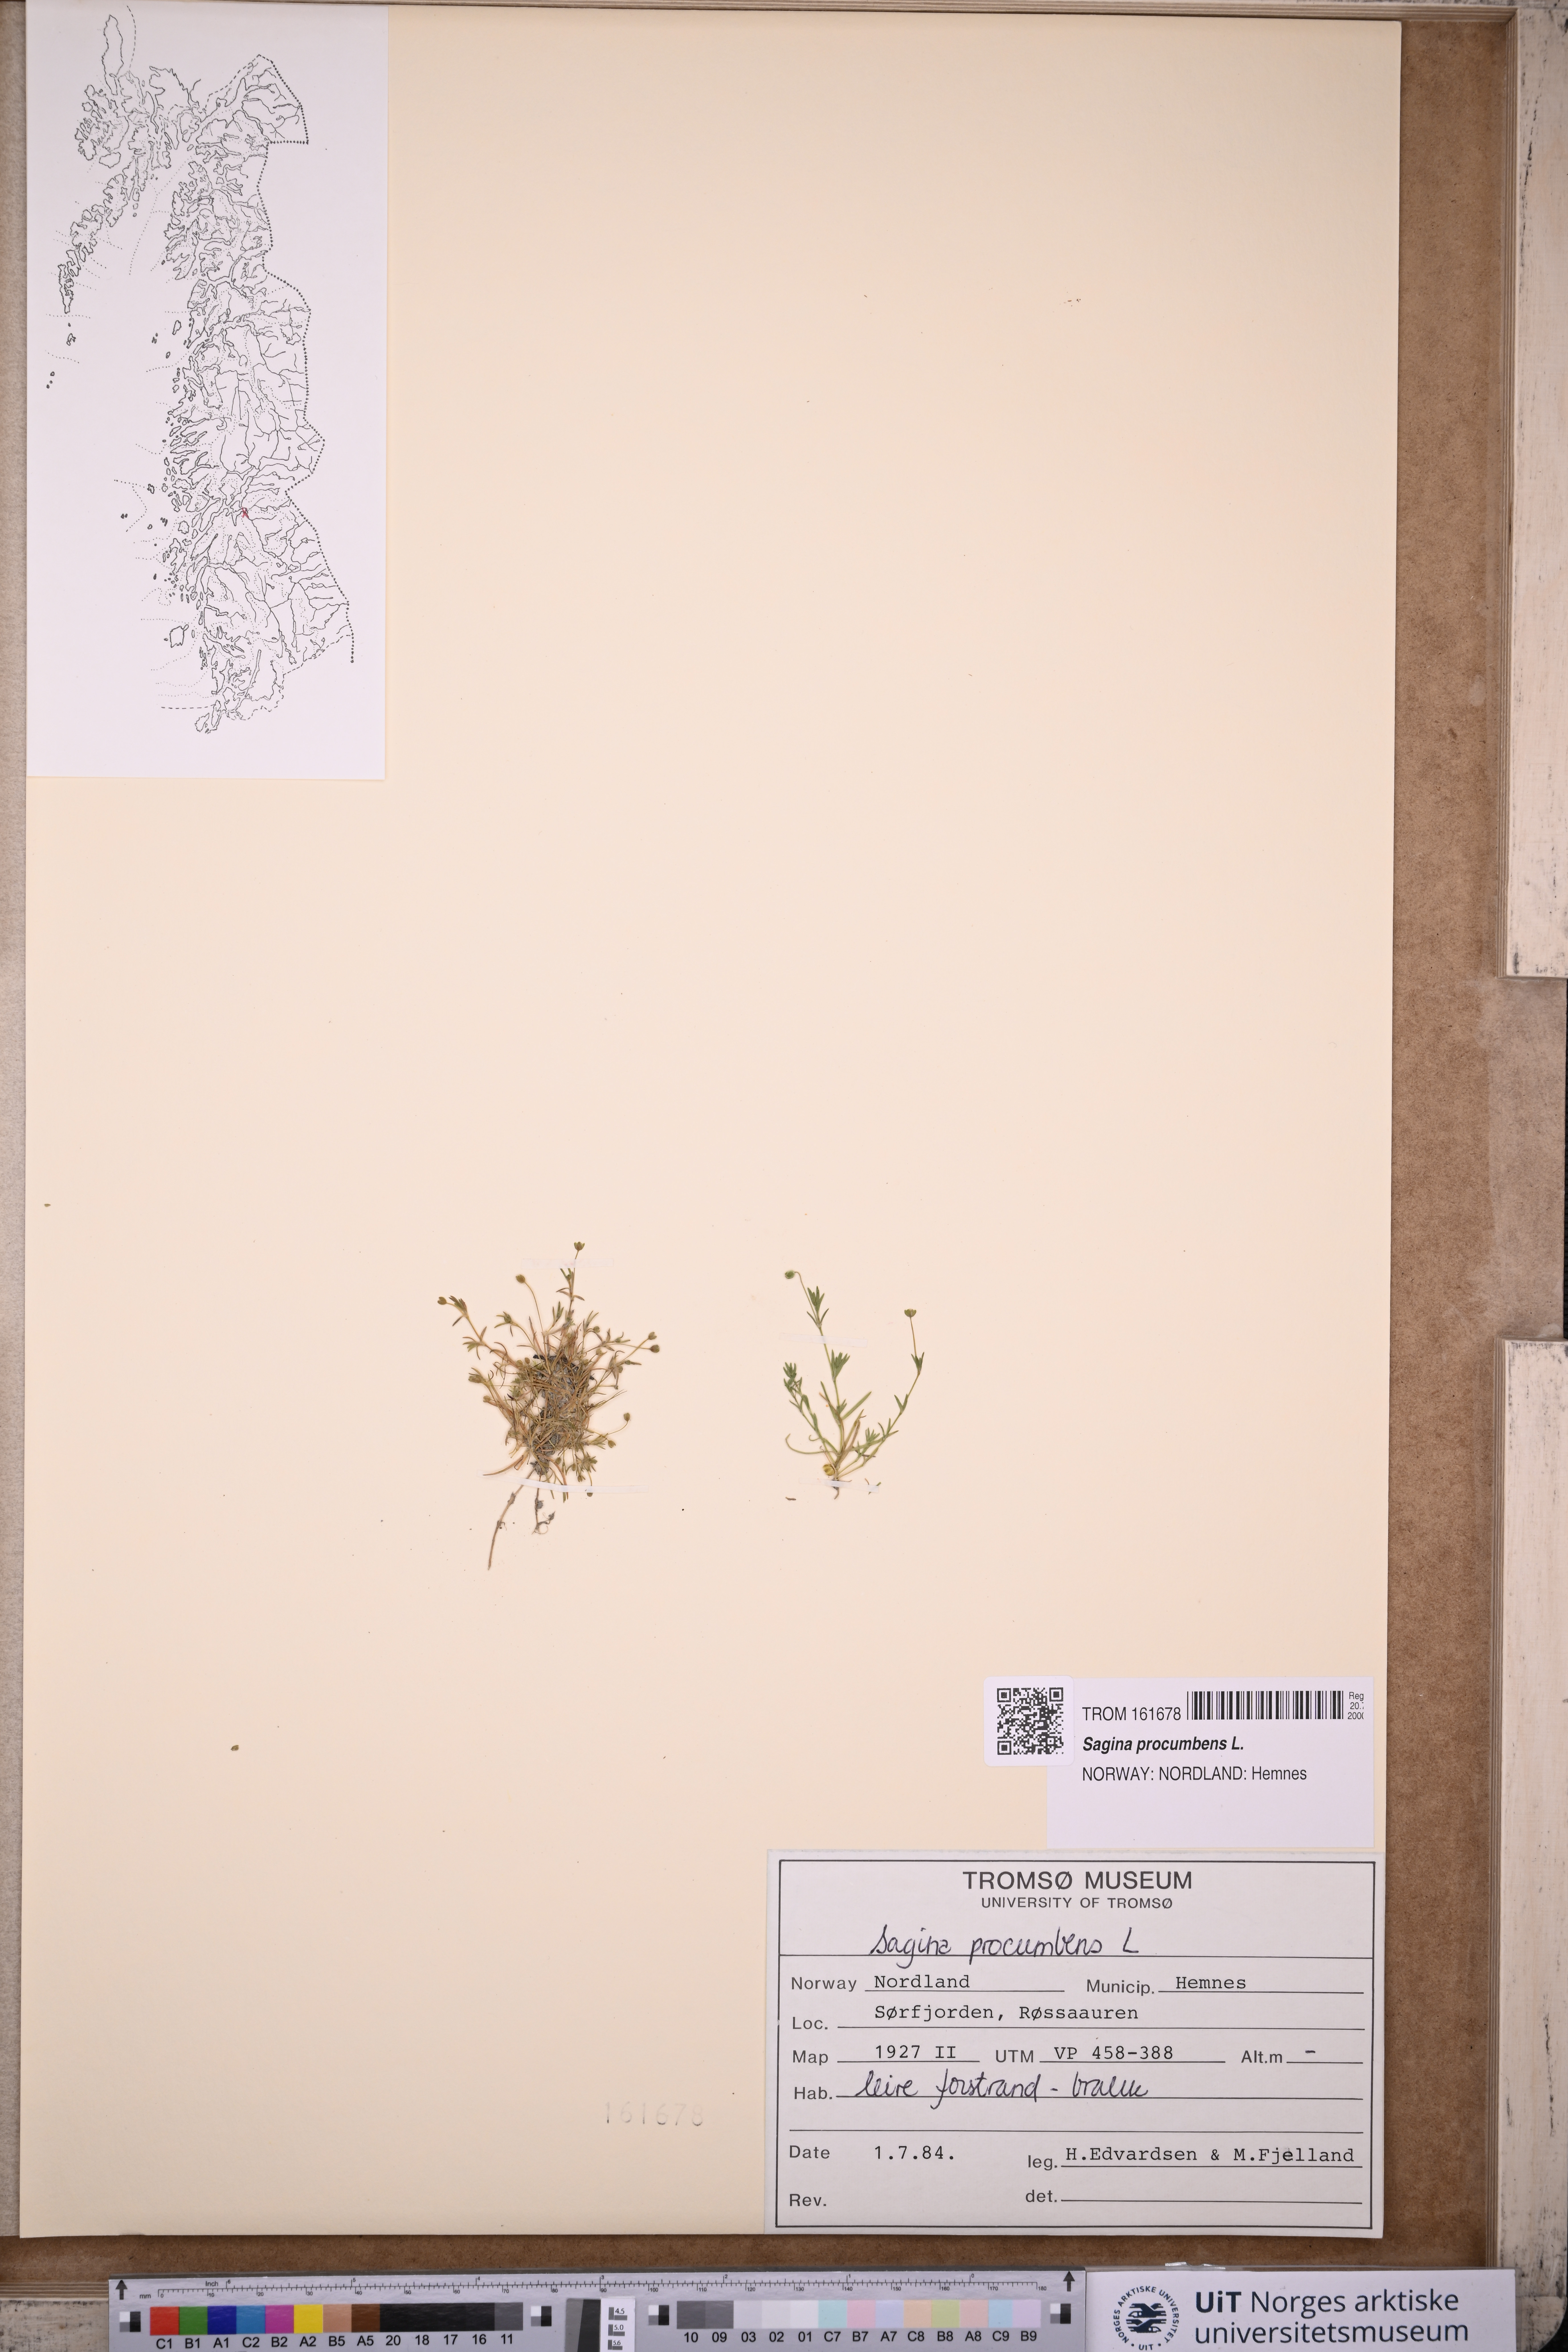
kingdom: Plantae
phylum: Tracheophyta
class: Magnoliopsida
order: Caryophyllales
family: Caryophyllaceae
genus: Sagina
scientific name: Sagina procumbens
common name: Procumbent pearlwort
